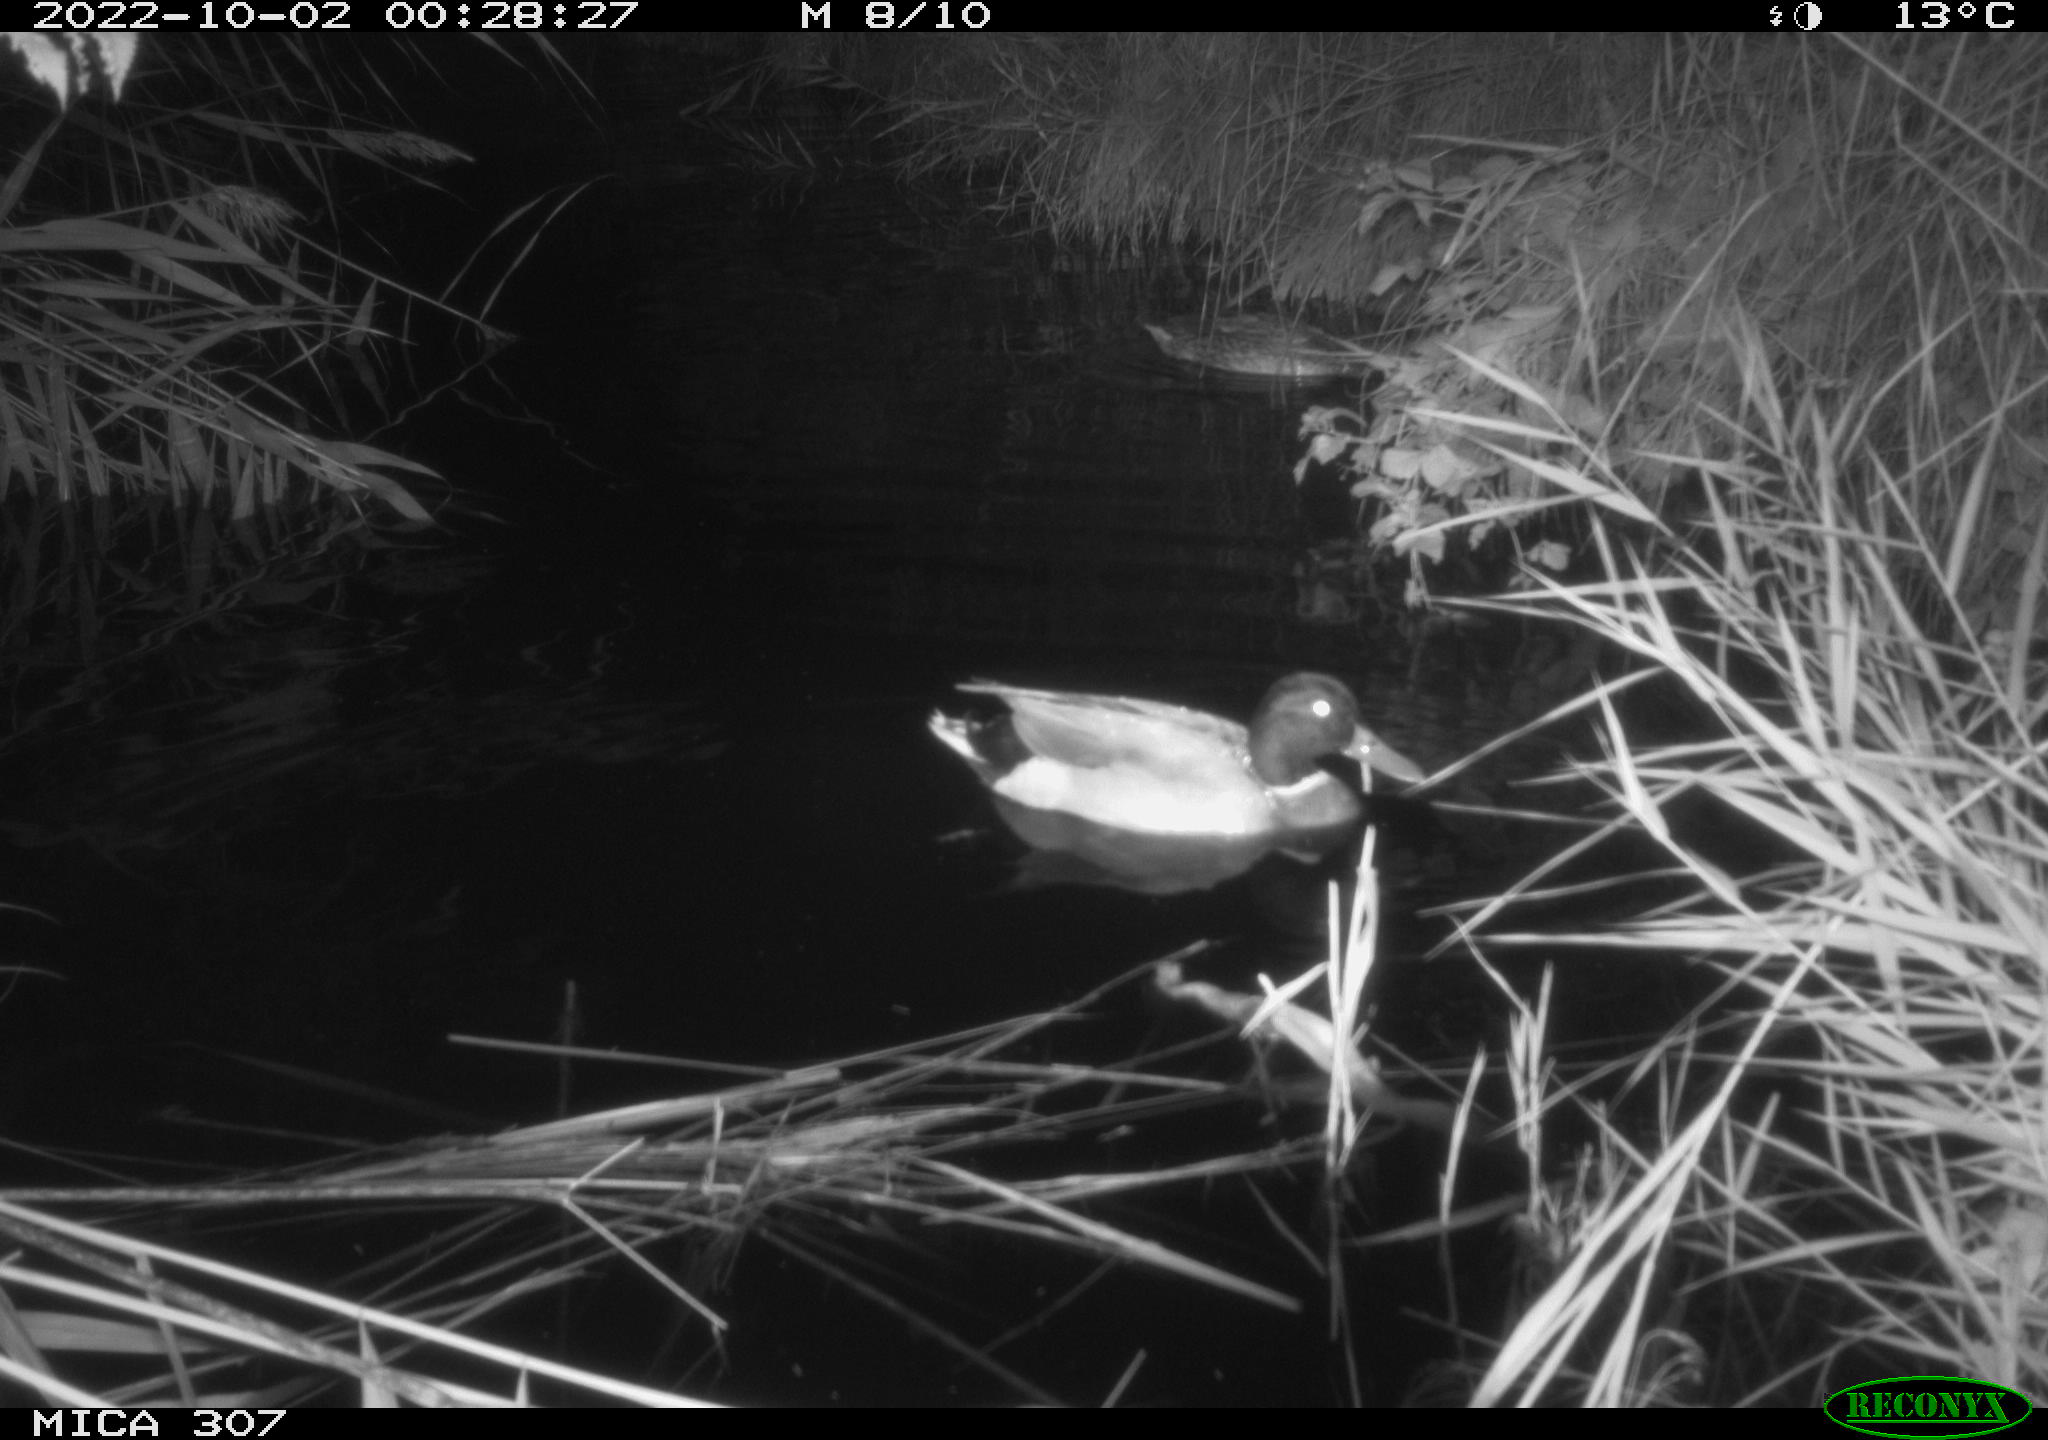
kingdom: Animalia
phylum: Chordata
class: Aves
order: Anseriformes
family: Anatidae
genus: Anas
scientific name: Anas
